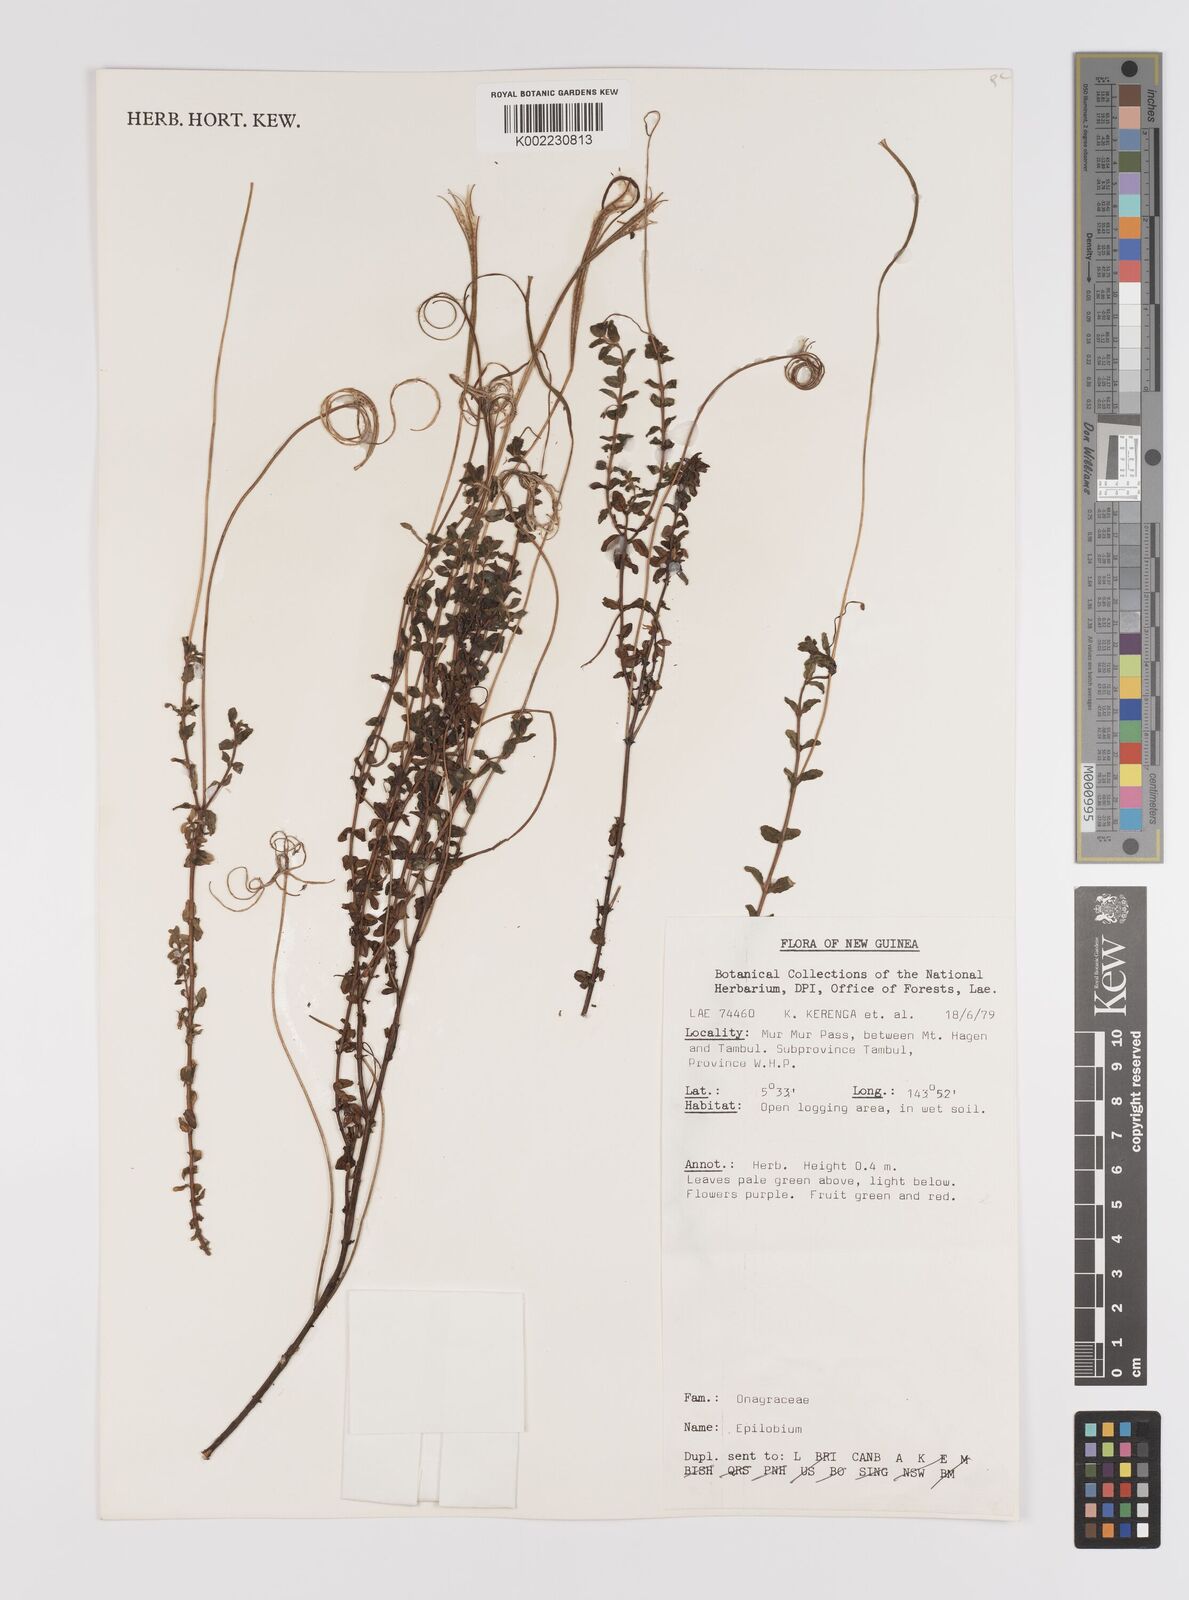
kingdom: Plantae
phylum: Tracheophyta
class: Magnoliopsida
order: Myrtales
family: Onagraceae
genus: Epilobium
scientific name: Epilobium
